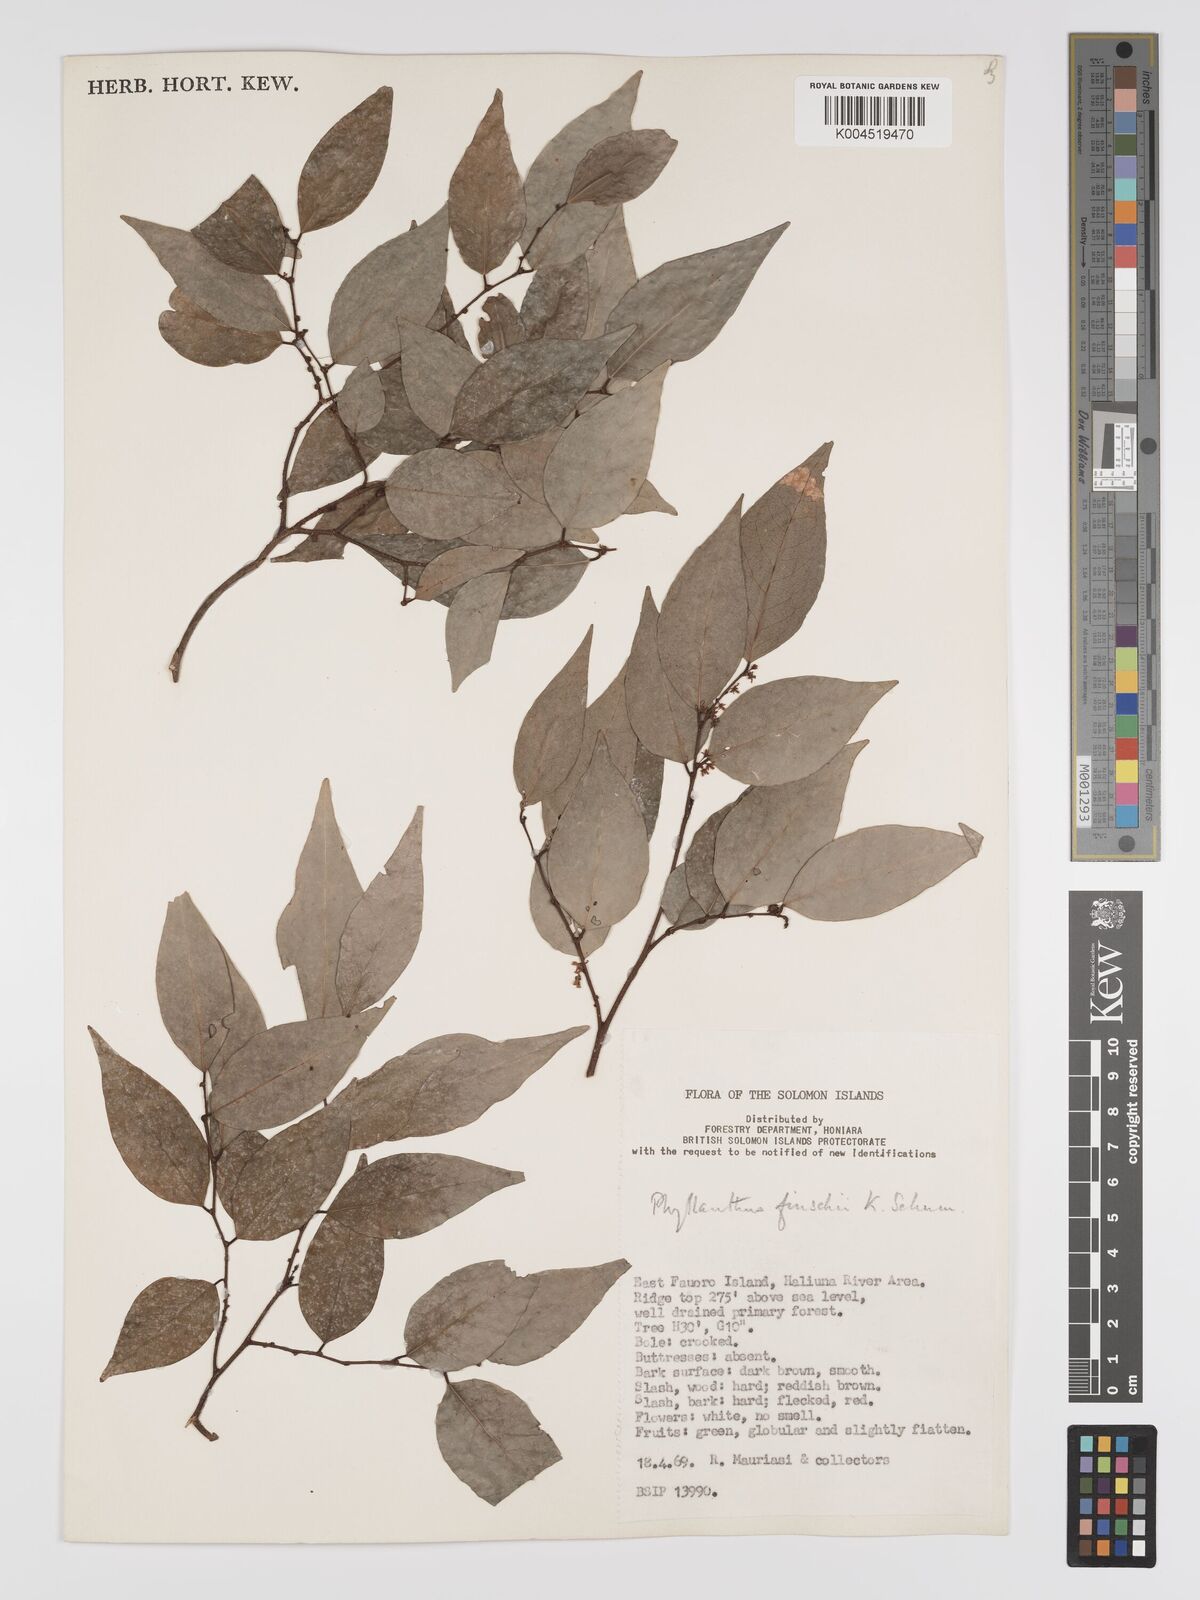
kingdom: Plantae
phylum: Tracheophyta
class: Magnoliopsida
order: Malpighiales
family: Phyllanthaceae
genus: Phyllanthus
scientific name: Phyllanthus finschii
